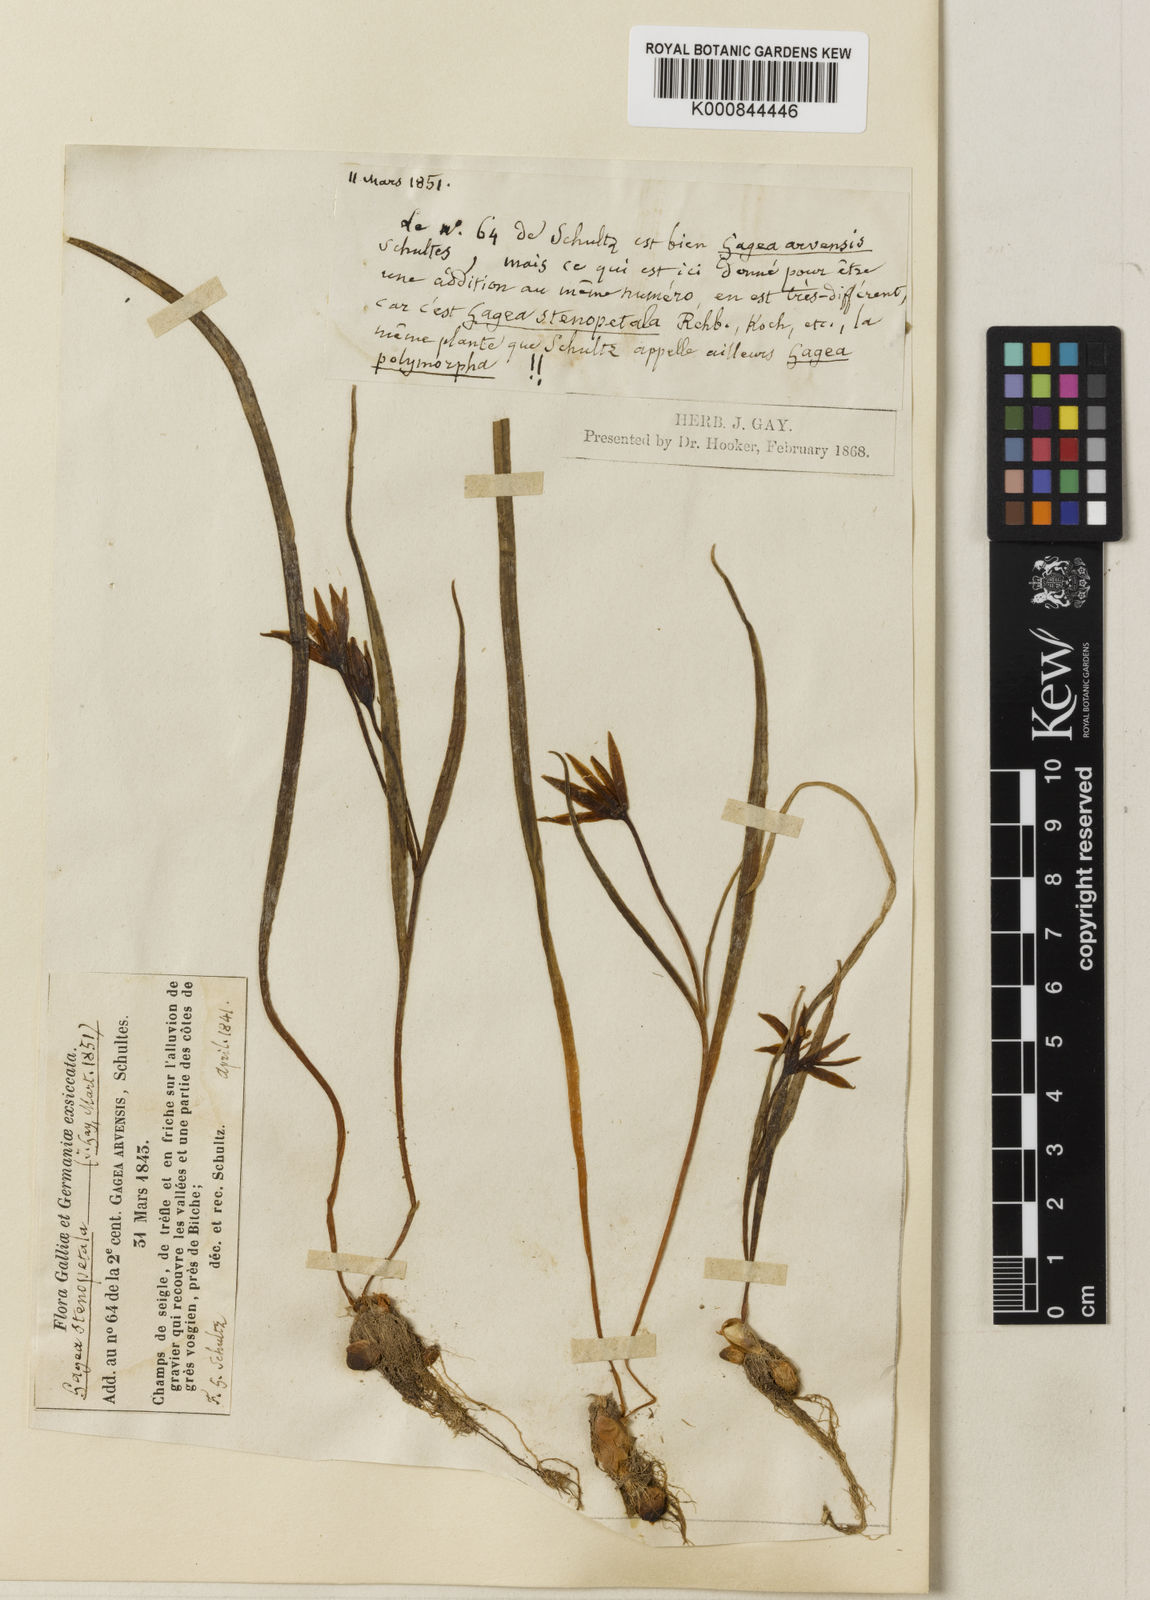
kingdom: Plantae
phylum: Tracheophyta
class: Liliopsida
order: Liliales
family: Liliaceae
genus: Gagea
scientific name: Gagea pratensis
